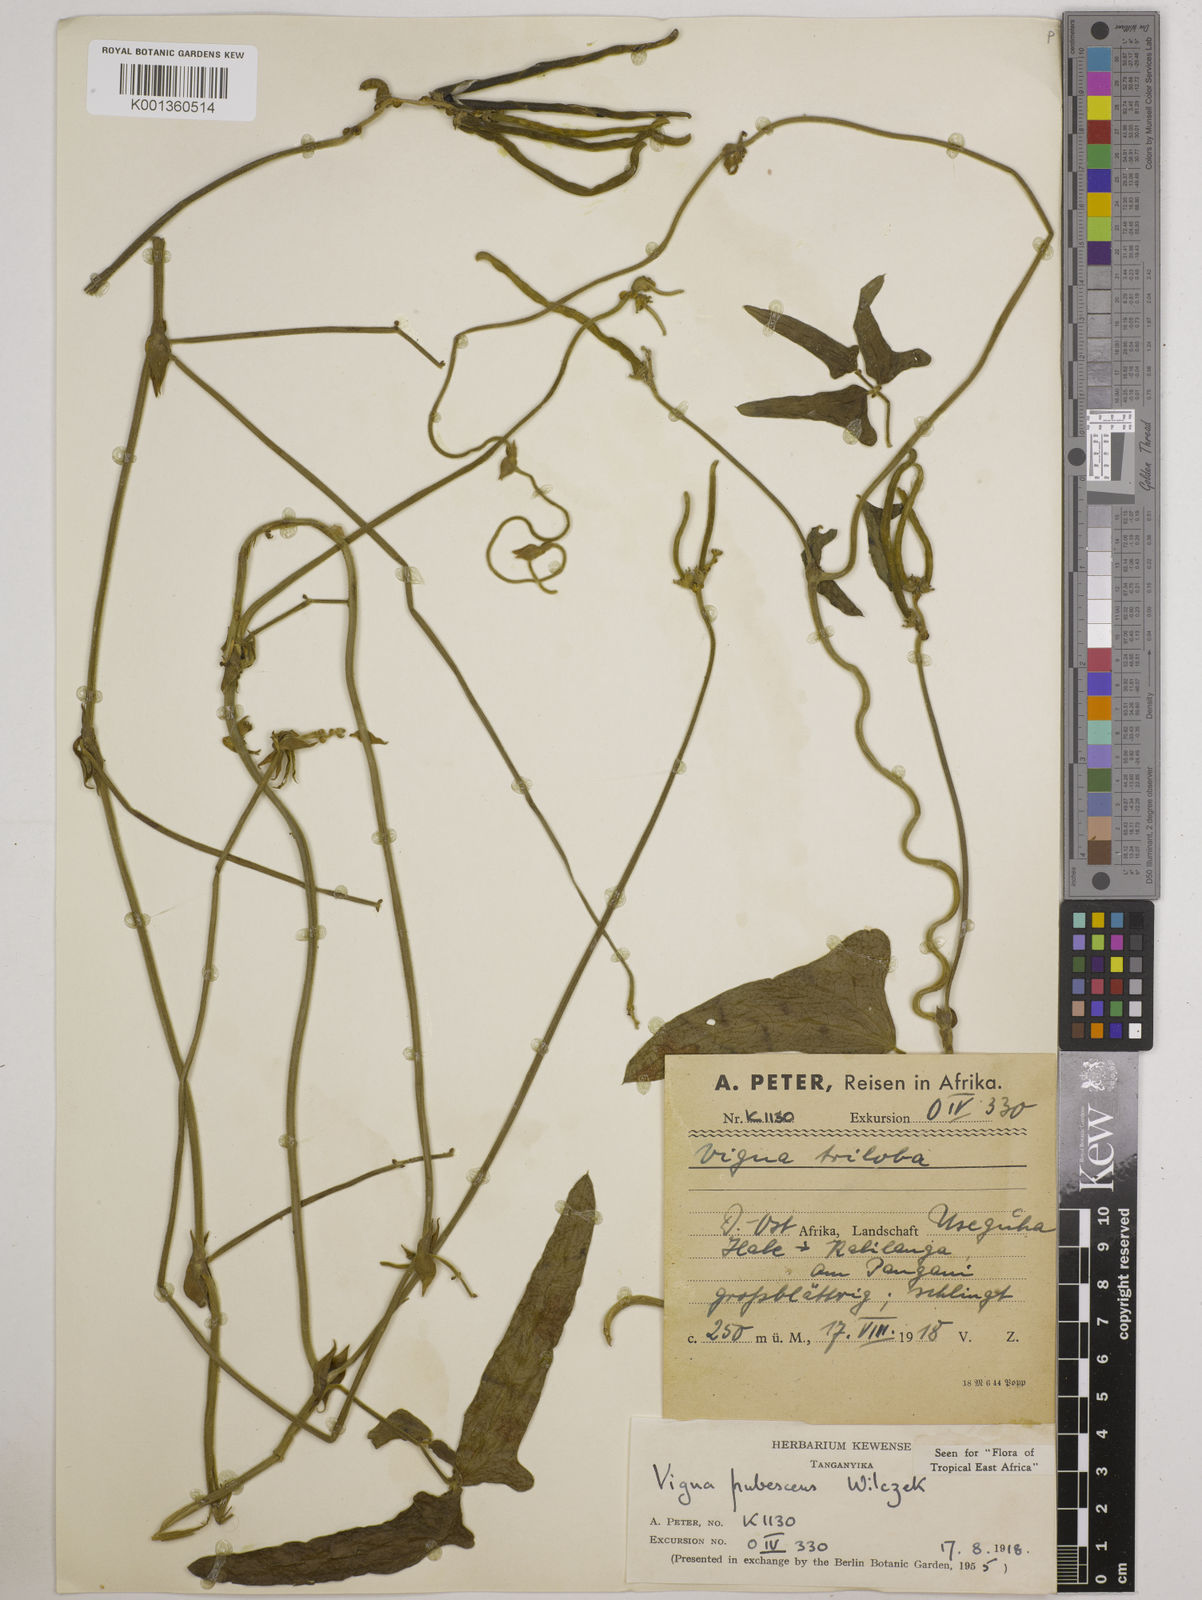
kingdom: Plantae
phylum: Tracheophyta
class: Magnoliopsida
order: Fabales
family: Fabaceae
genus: Vigna
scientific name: Vigna unguiculata
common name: Cowpea
